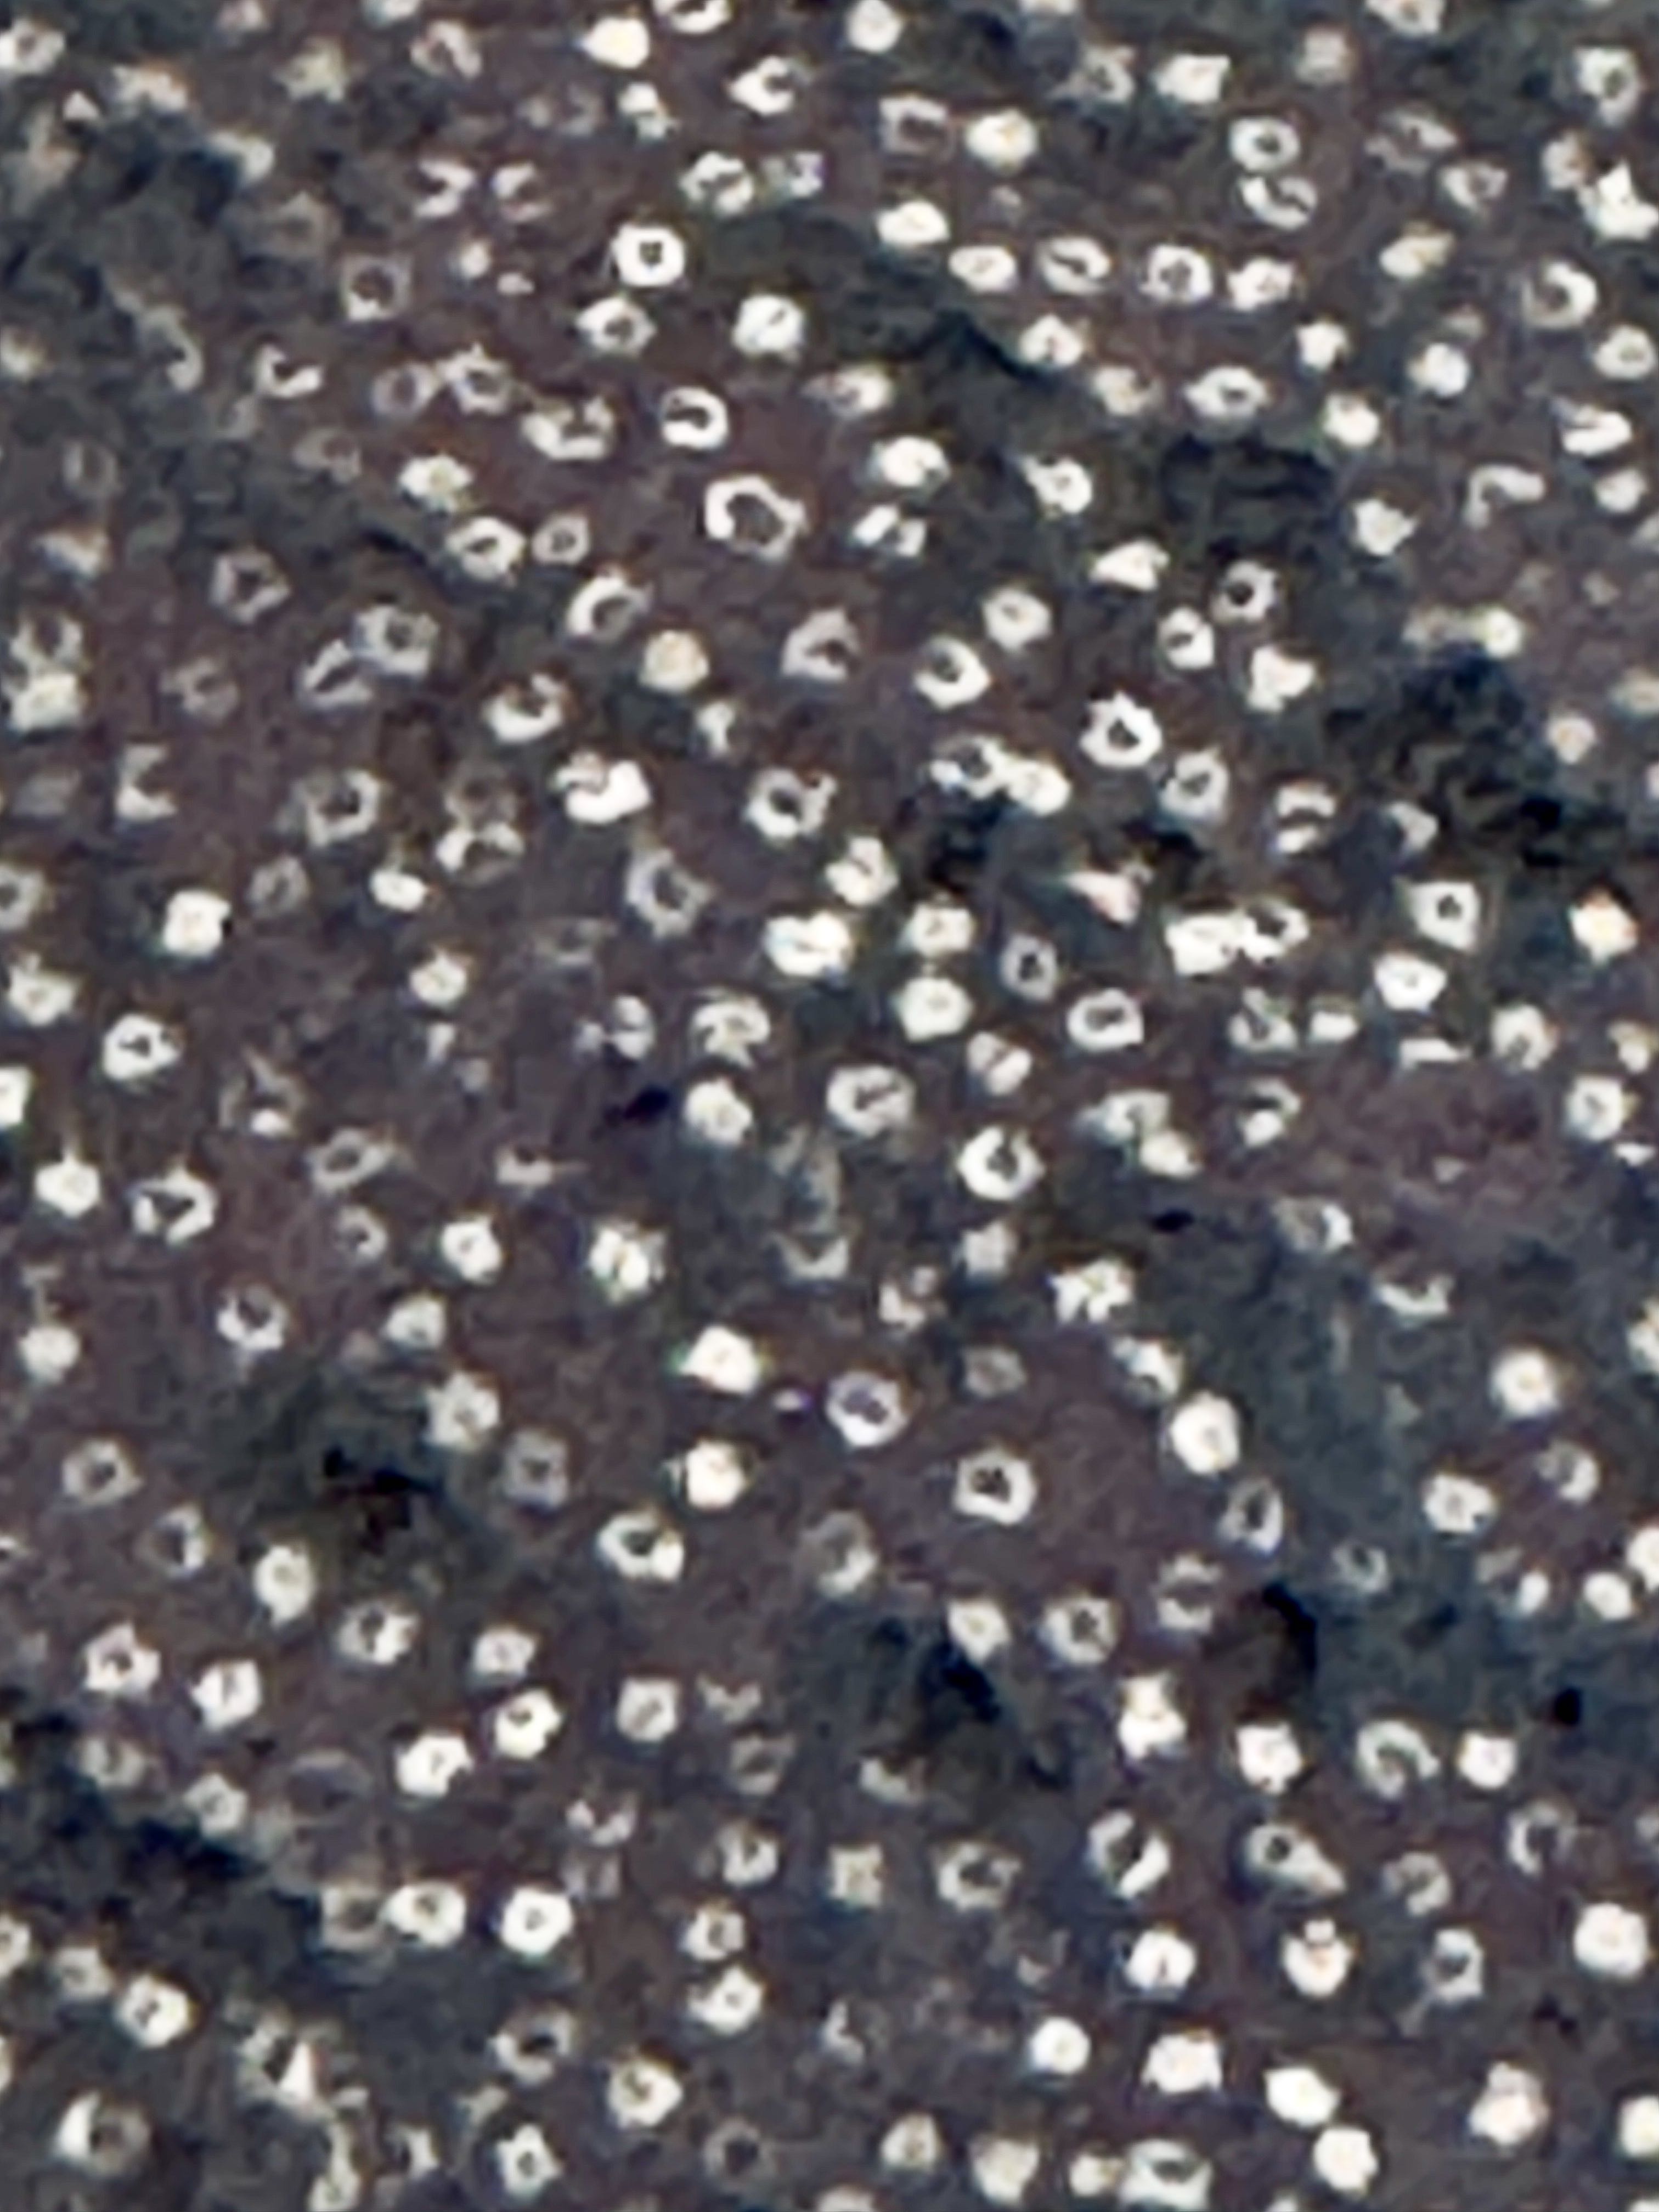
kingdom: Fungi
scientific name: Fungi
